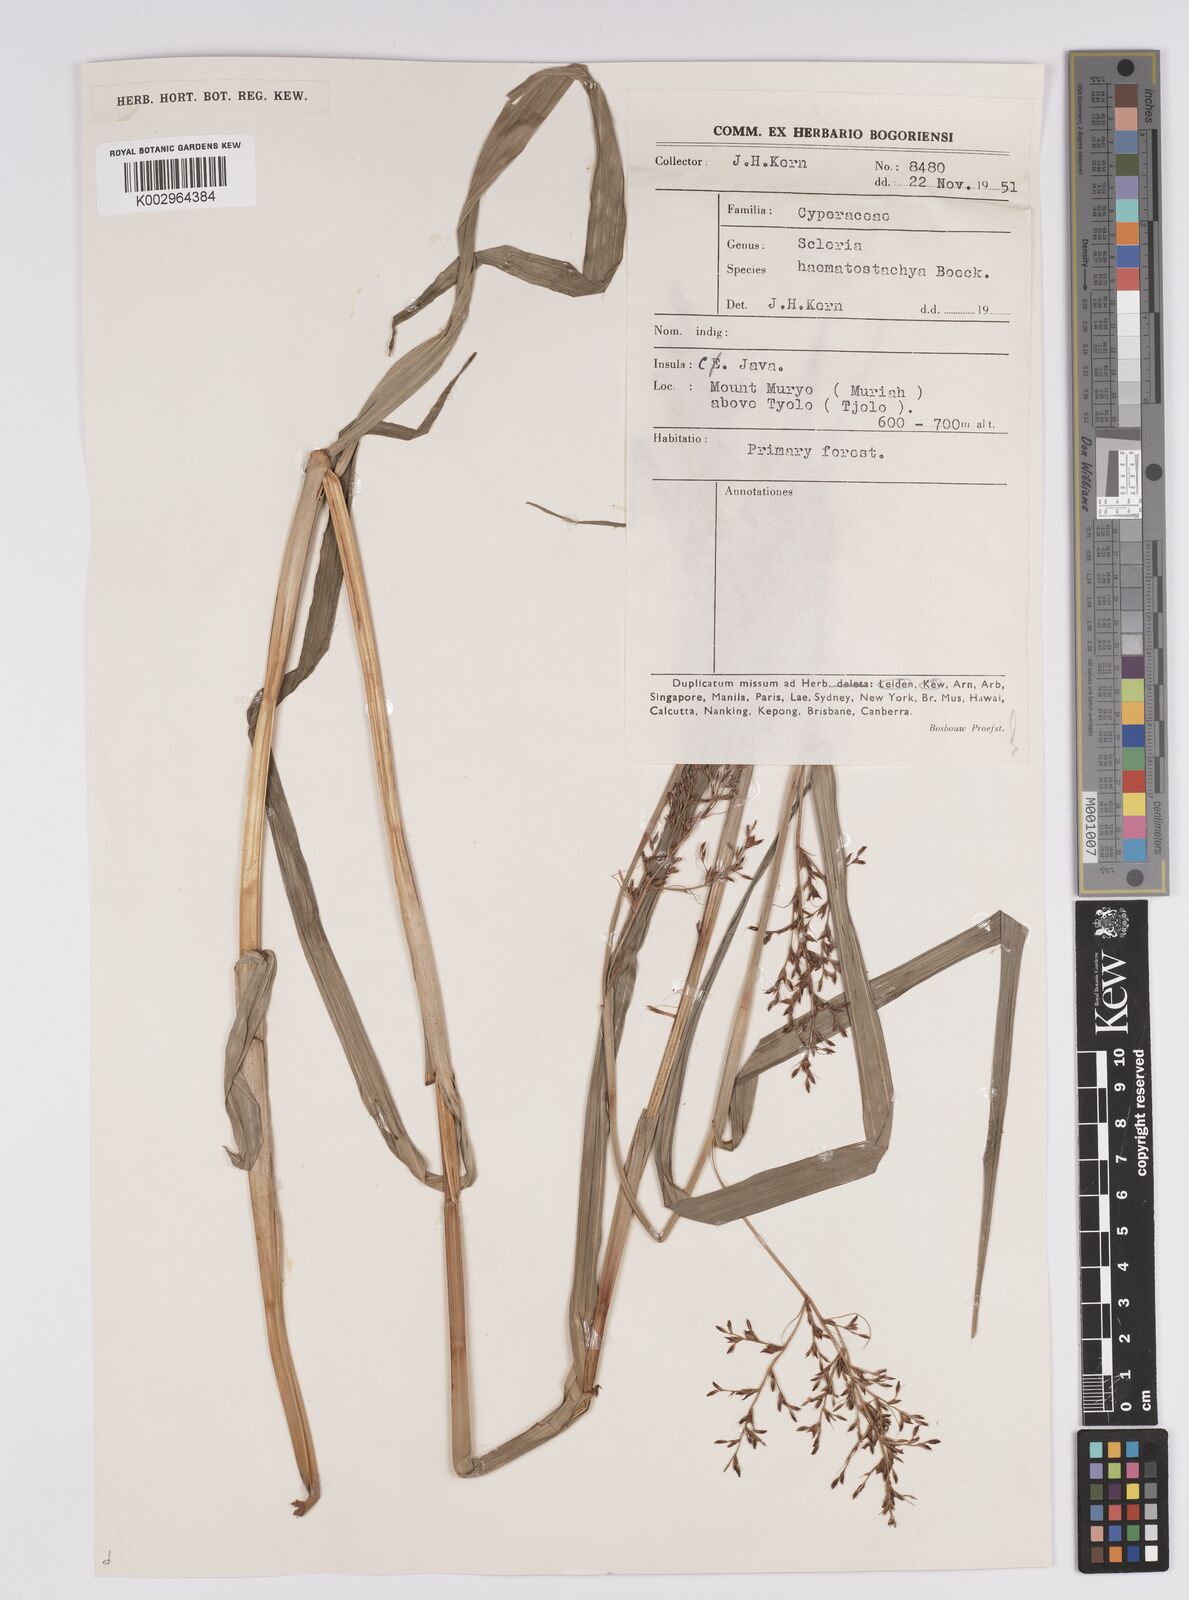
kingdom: Plantae
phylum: Tracheophyta
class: Liliopsida
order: Poales
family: Cyperaceae
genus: Scleria
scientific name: Scleria terrestris
